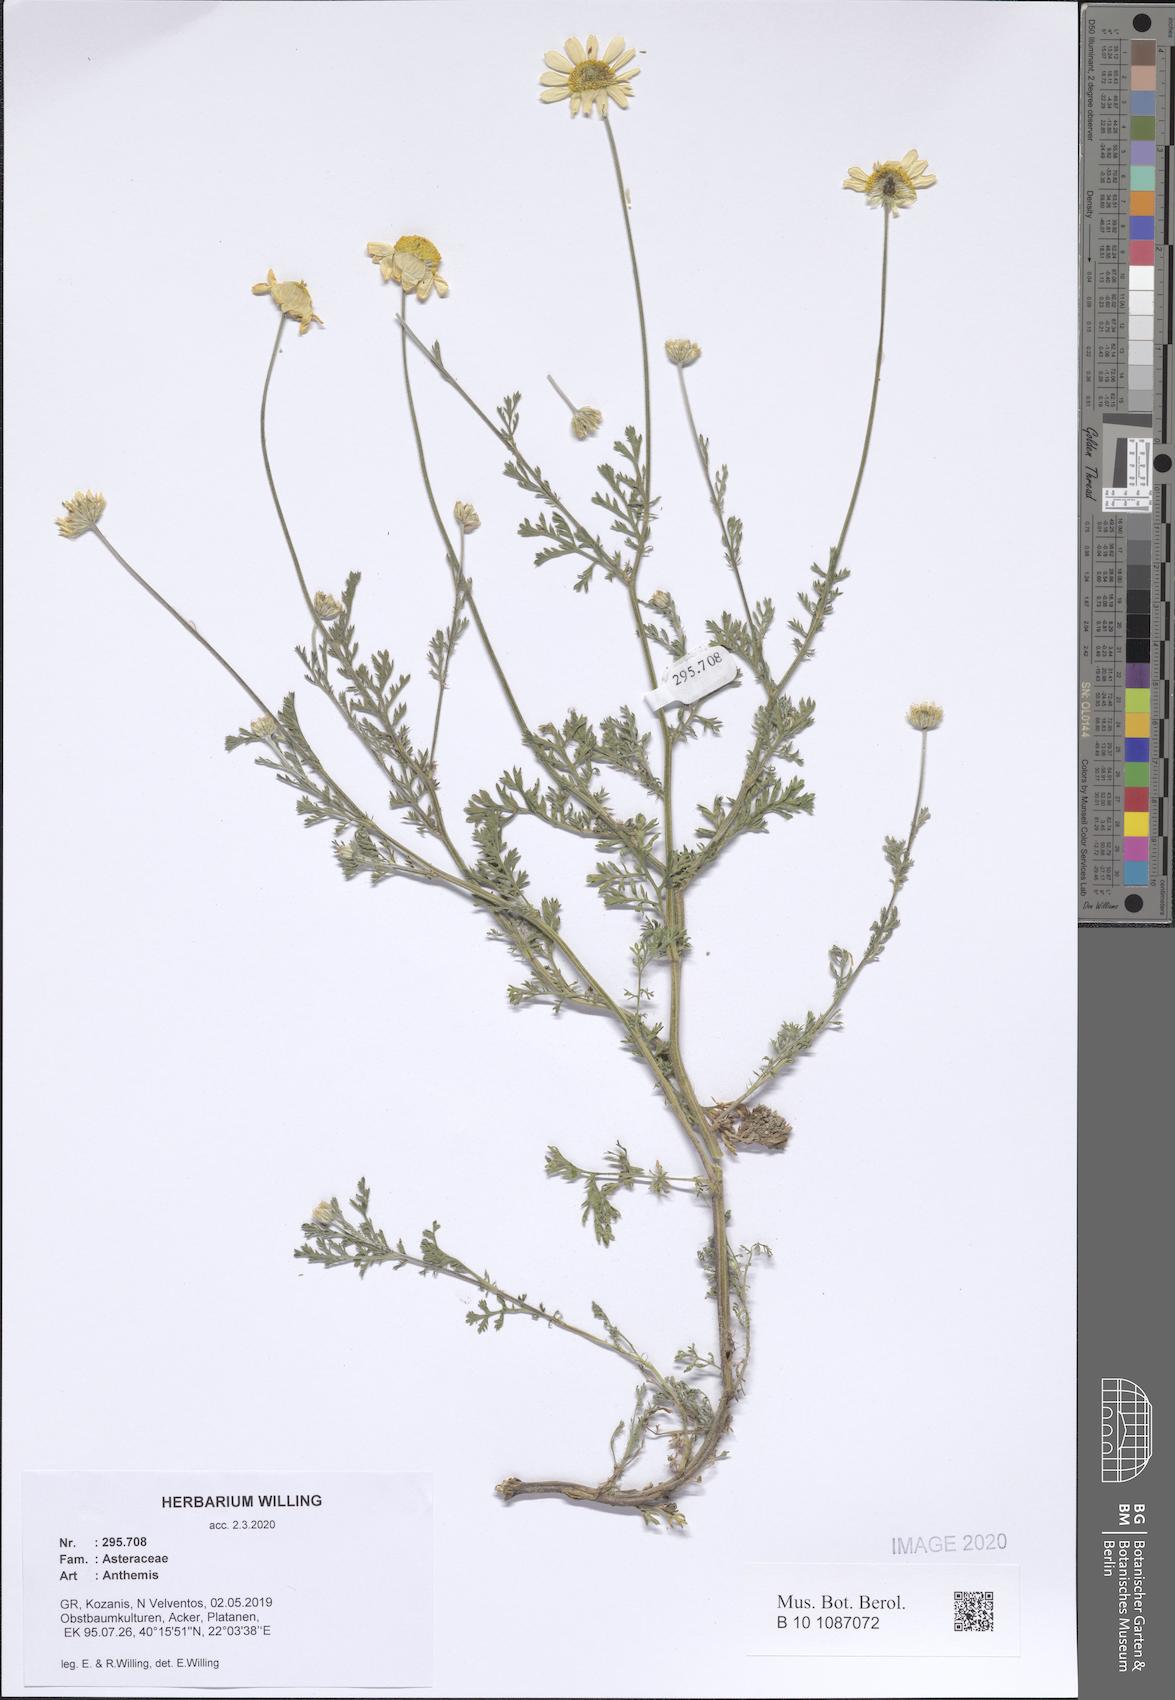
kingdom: Plantae
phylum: Tracheophyta
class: Magnoliopsida
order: Asterales
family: Asteraceae
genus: Anthemis
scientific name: Anthemis
